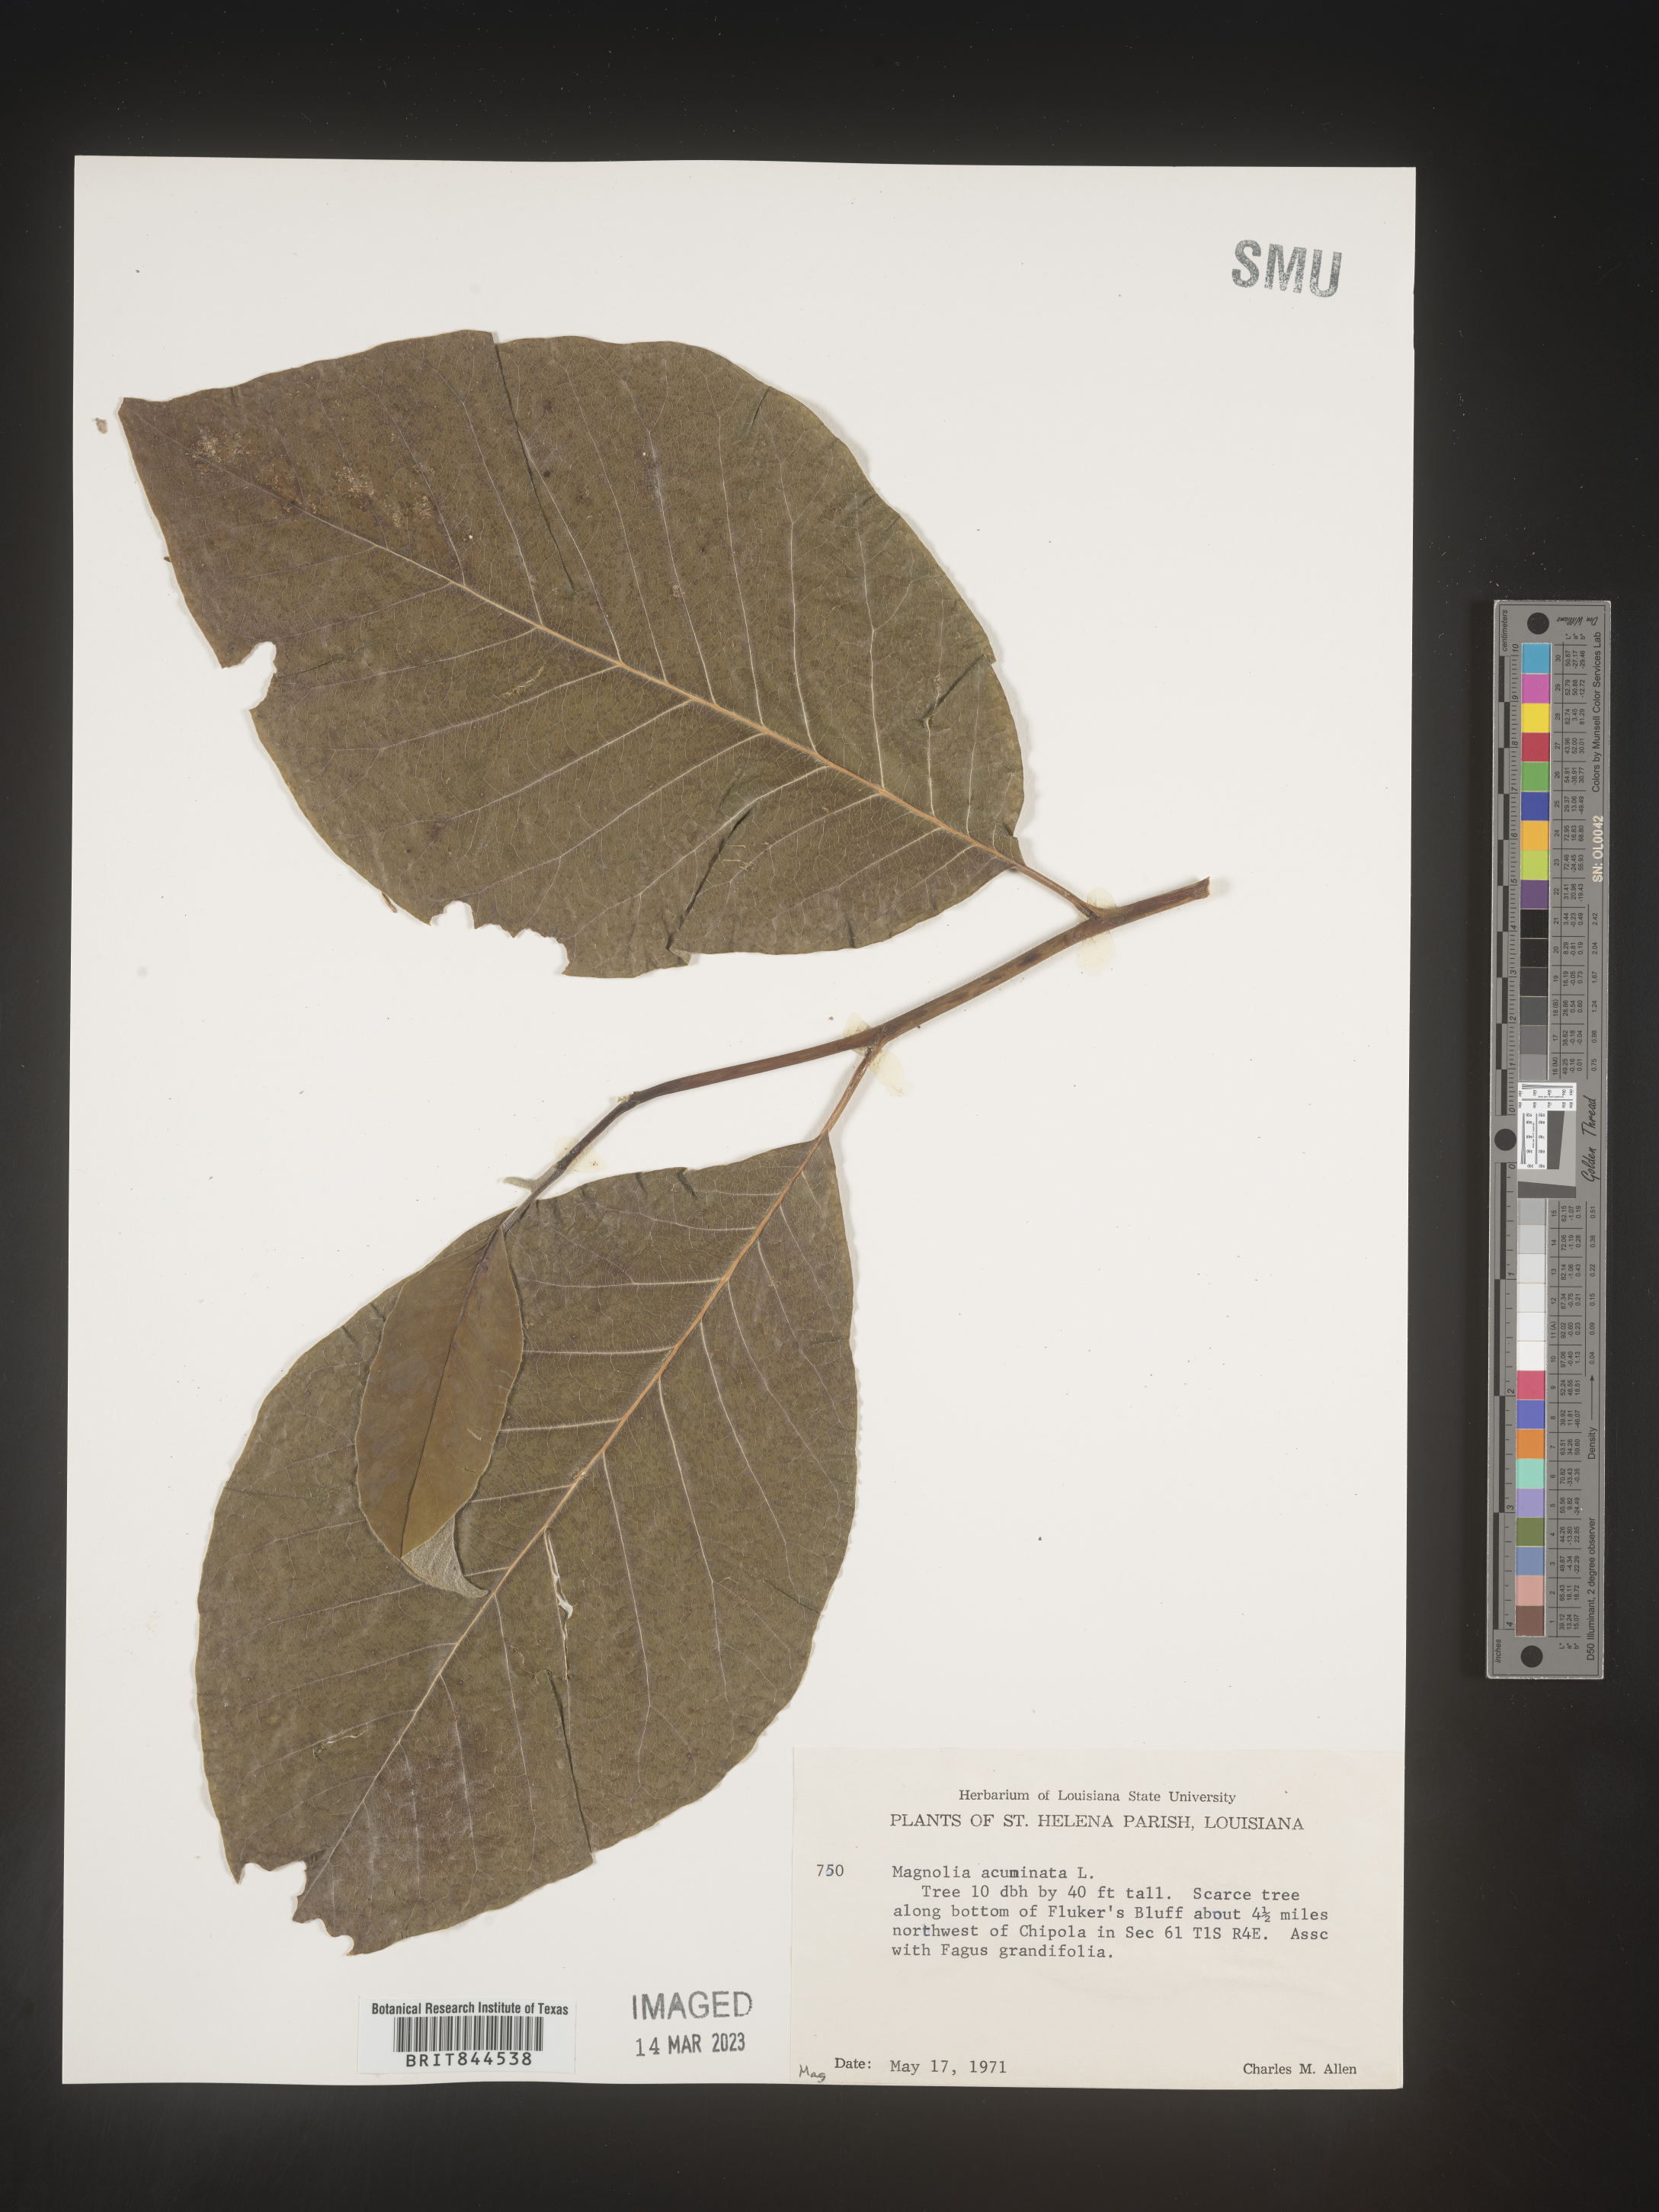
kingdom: Plantae
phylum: Tracheophyta
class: Magnoliopsida
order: Magnoliales
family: Magnoliaceae
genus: Magnolia
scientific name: Magnolia acuminata
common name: Cucumber magnolia
